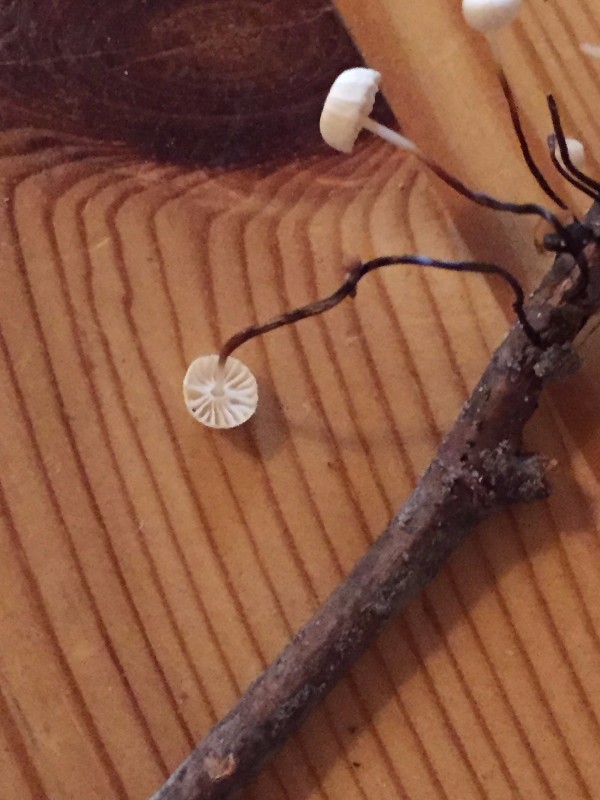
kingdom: Fungi
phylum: Basidiomycota
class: Agaricomycetes
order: Agaricales
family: Marasmiaceae
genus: Marasmius
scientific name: Marasmius rotula
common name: hjul-bruskhat
